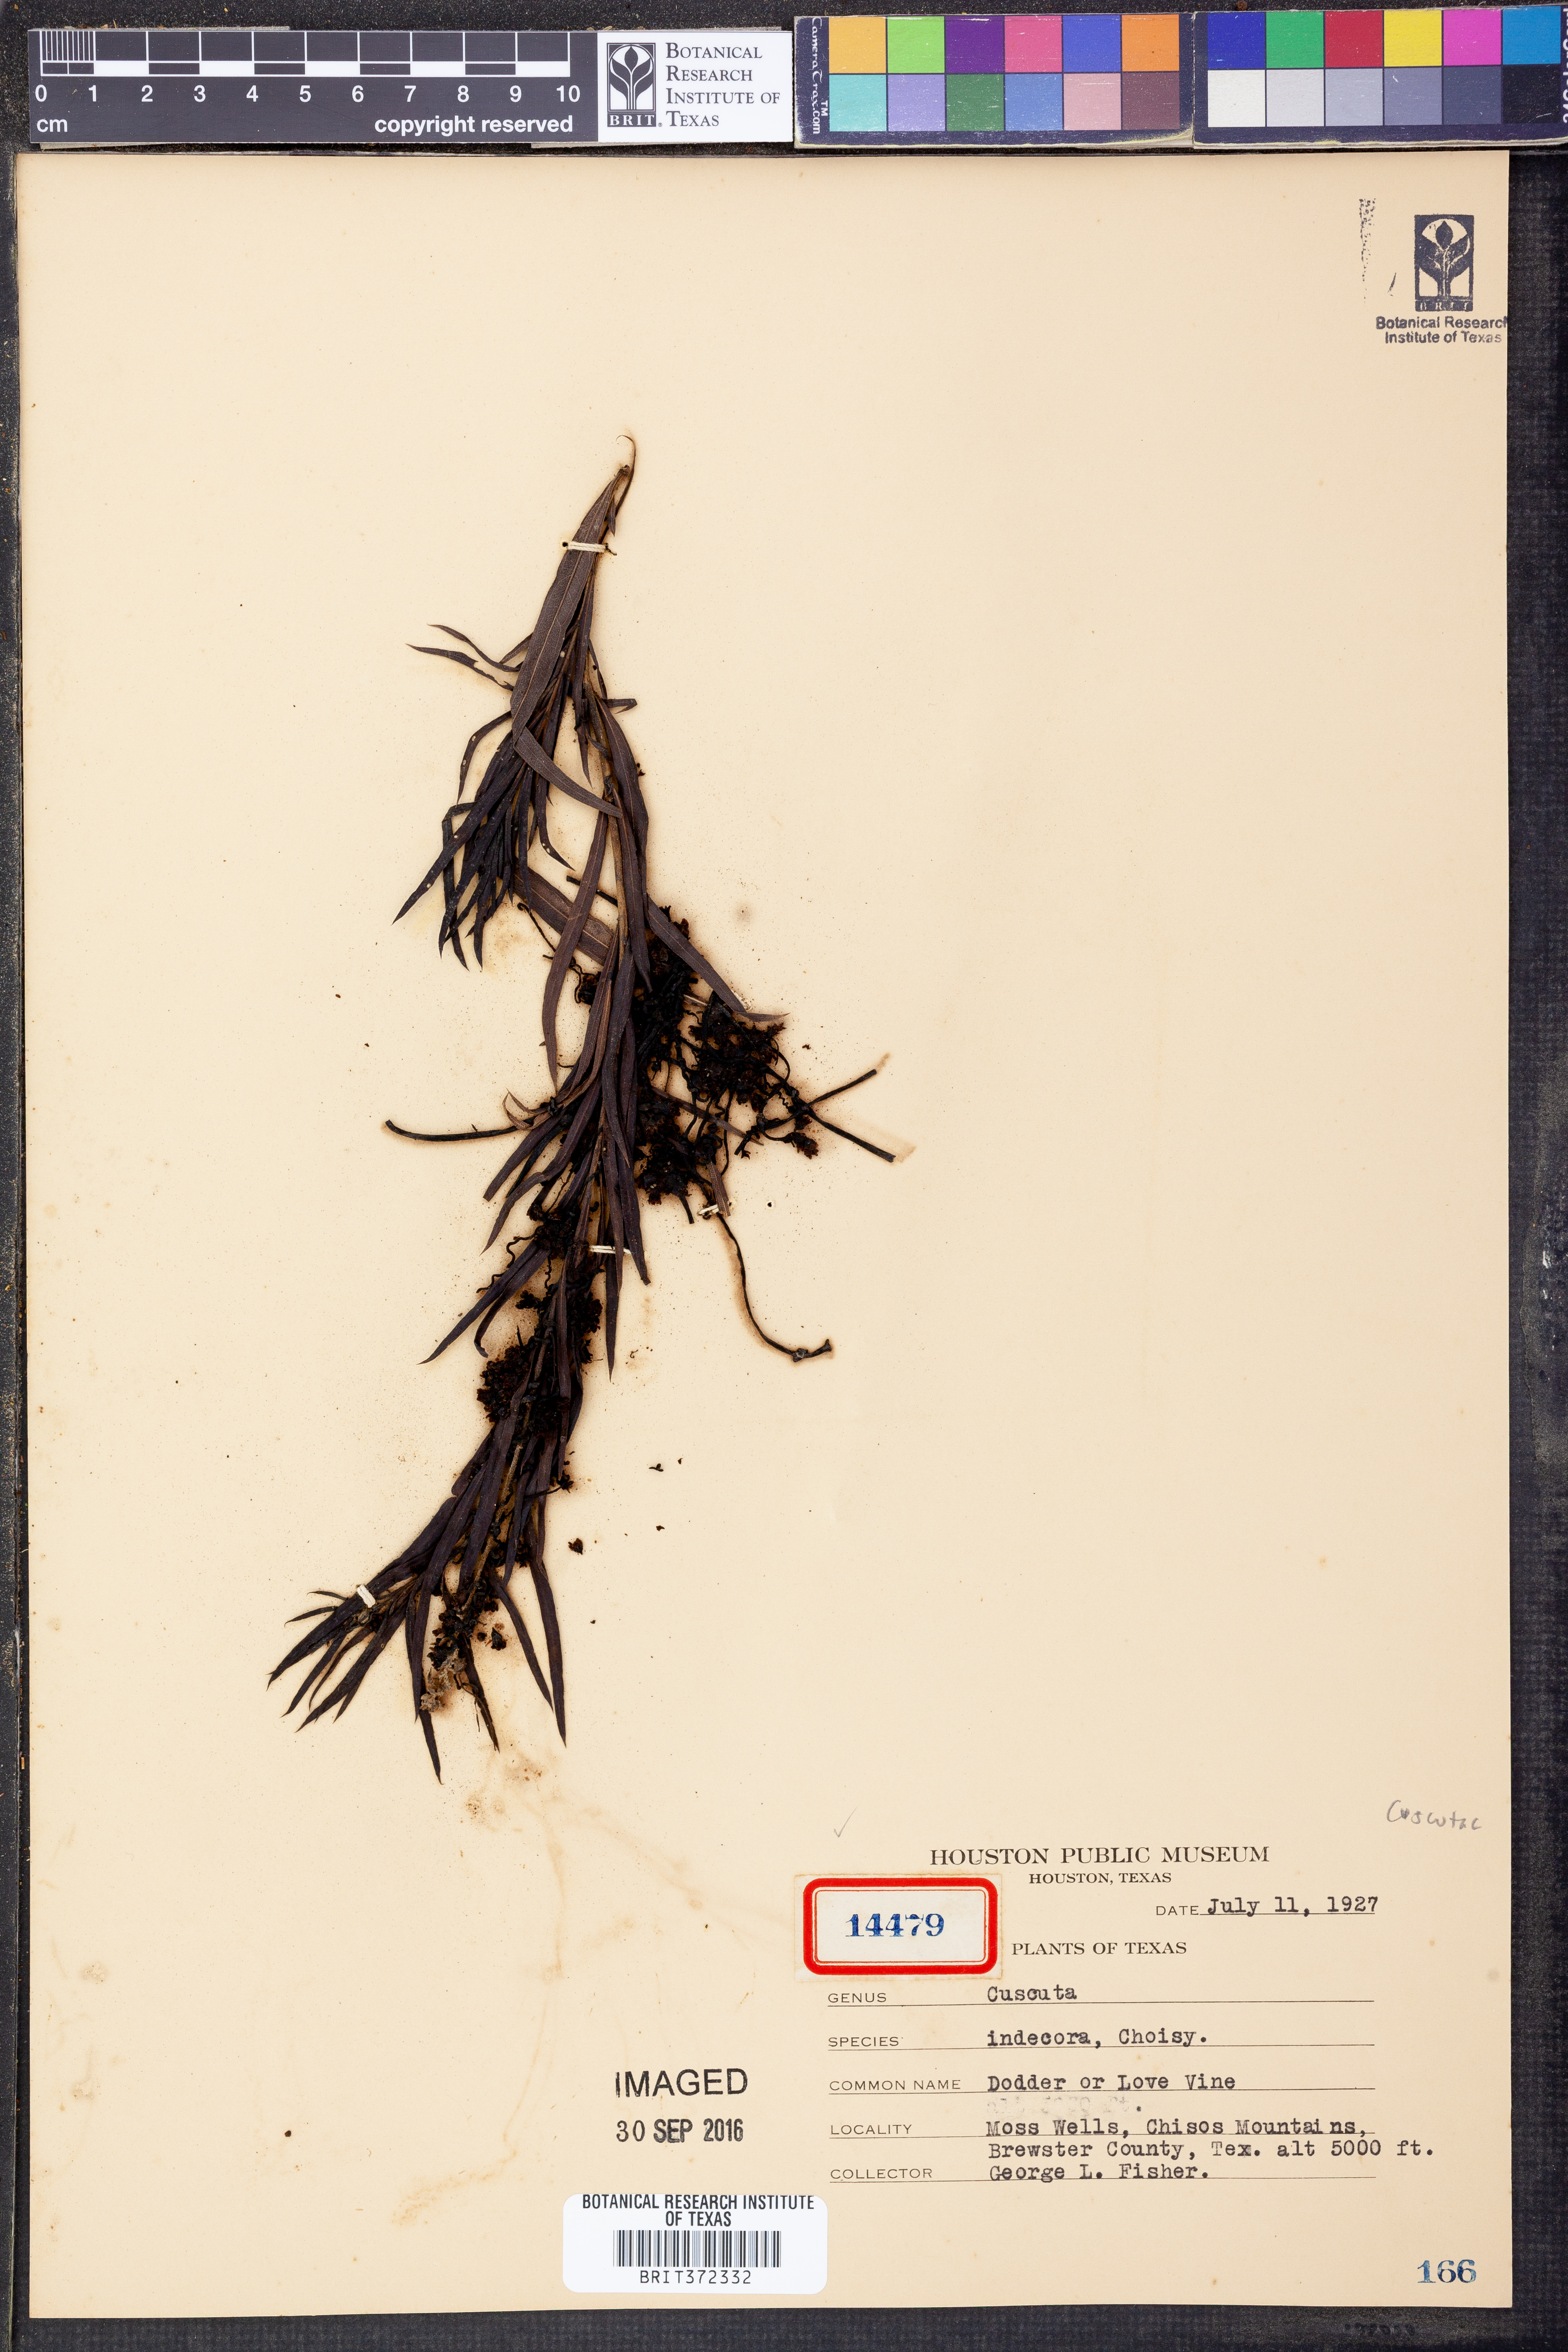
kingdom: Plantae
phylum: Tracheophyta
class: Magnoliopsida
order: Solanales
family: Convolvulaceae
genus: Cuscuta
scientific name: Cuscuta indecora
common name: Large-seed dodder
